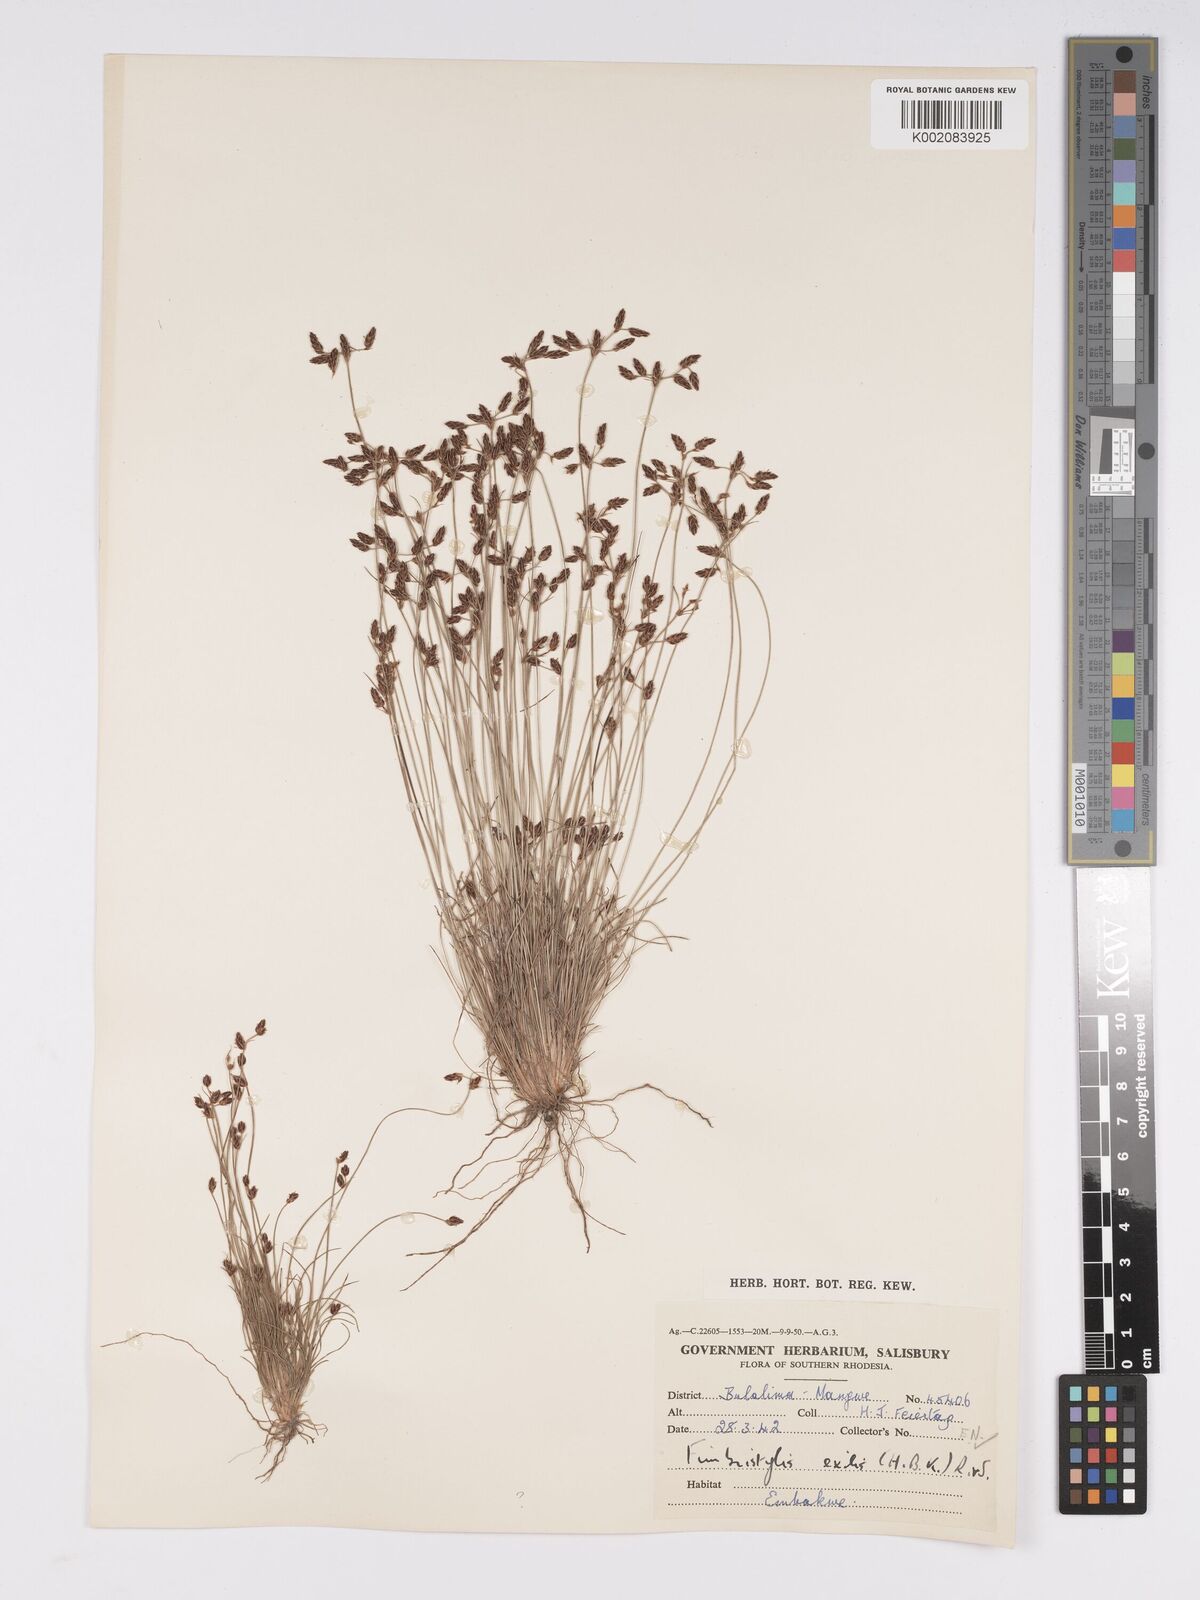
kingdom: Plantae
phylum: Tracheophyta
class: Liliopsida
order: Poales
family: Cyperaceae
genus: Bulbostylis
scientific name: Bulbostylis hispidula
